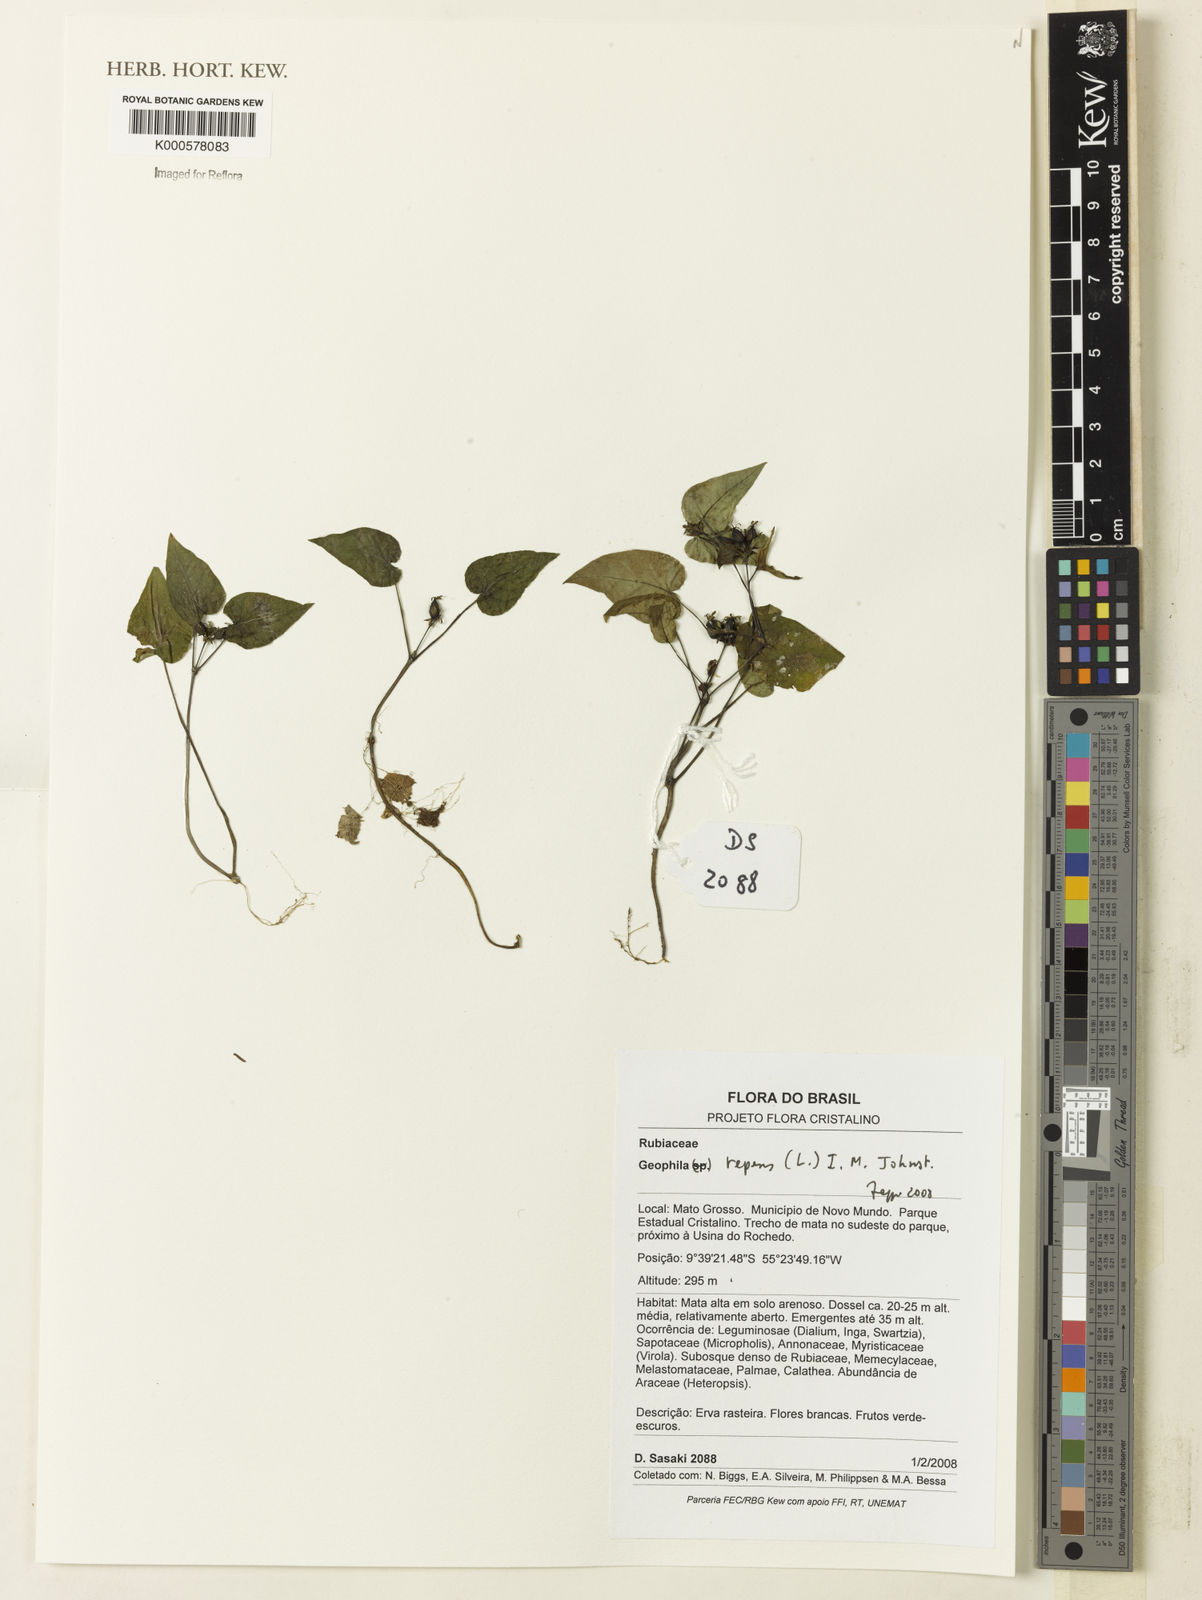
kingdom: Plantae
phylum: Tracheophyta
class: Magnoliopsida
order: Gentianales
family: Rubiaceae
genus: Geophila
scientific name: Geophila repens
